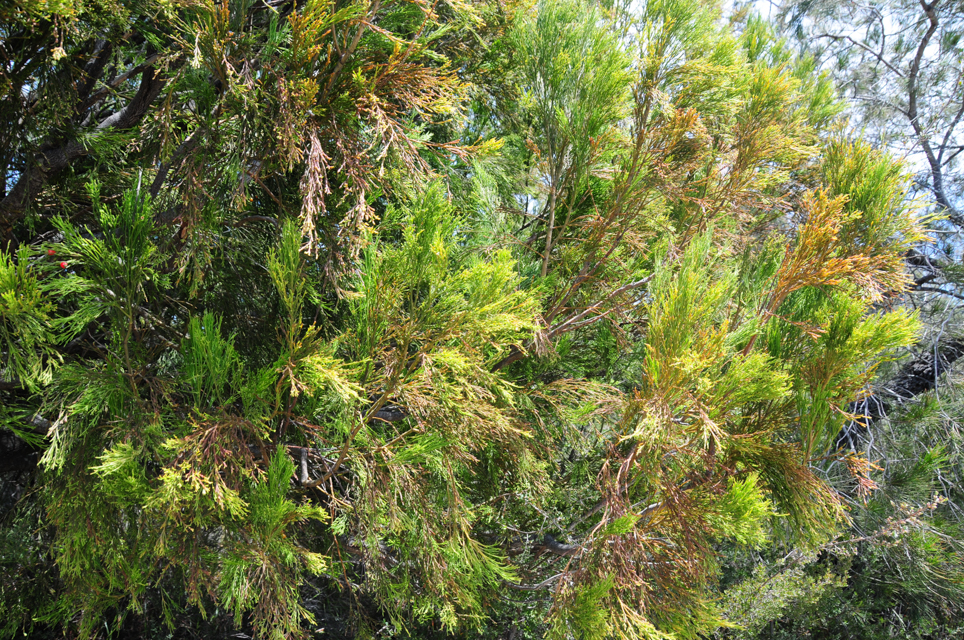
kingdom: Plantae
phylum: Tracheophyta
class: Magnoliopsida
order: Santalales
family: Santalaceae
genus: Exocarpos
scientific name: Exocarpos cupressiformis
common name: Cherry ballart
